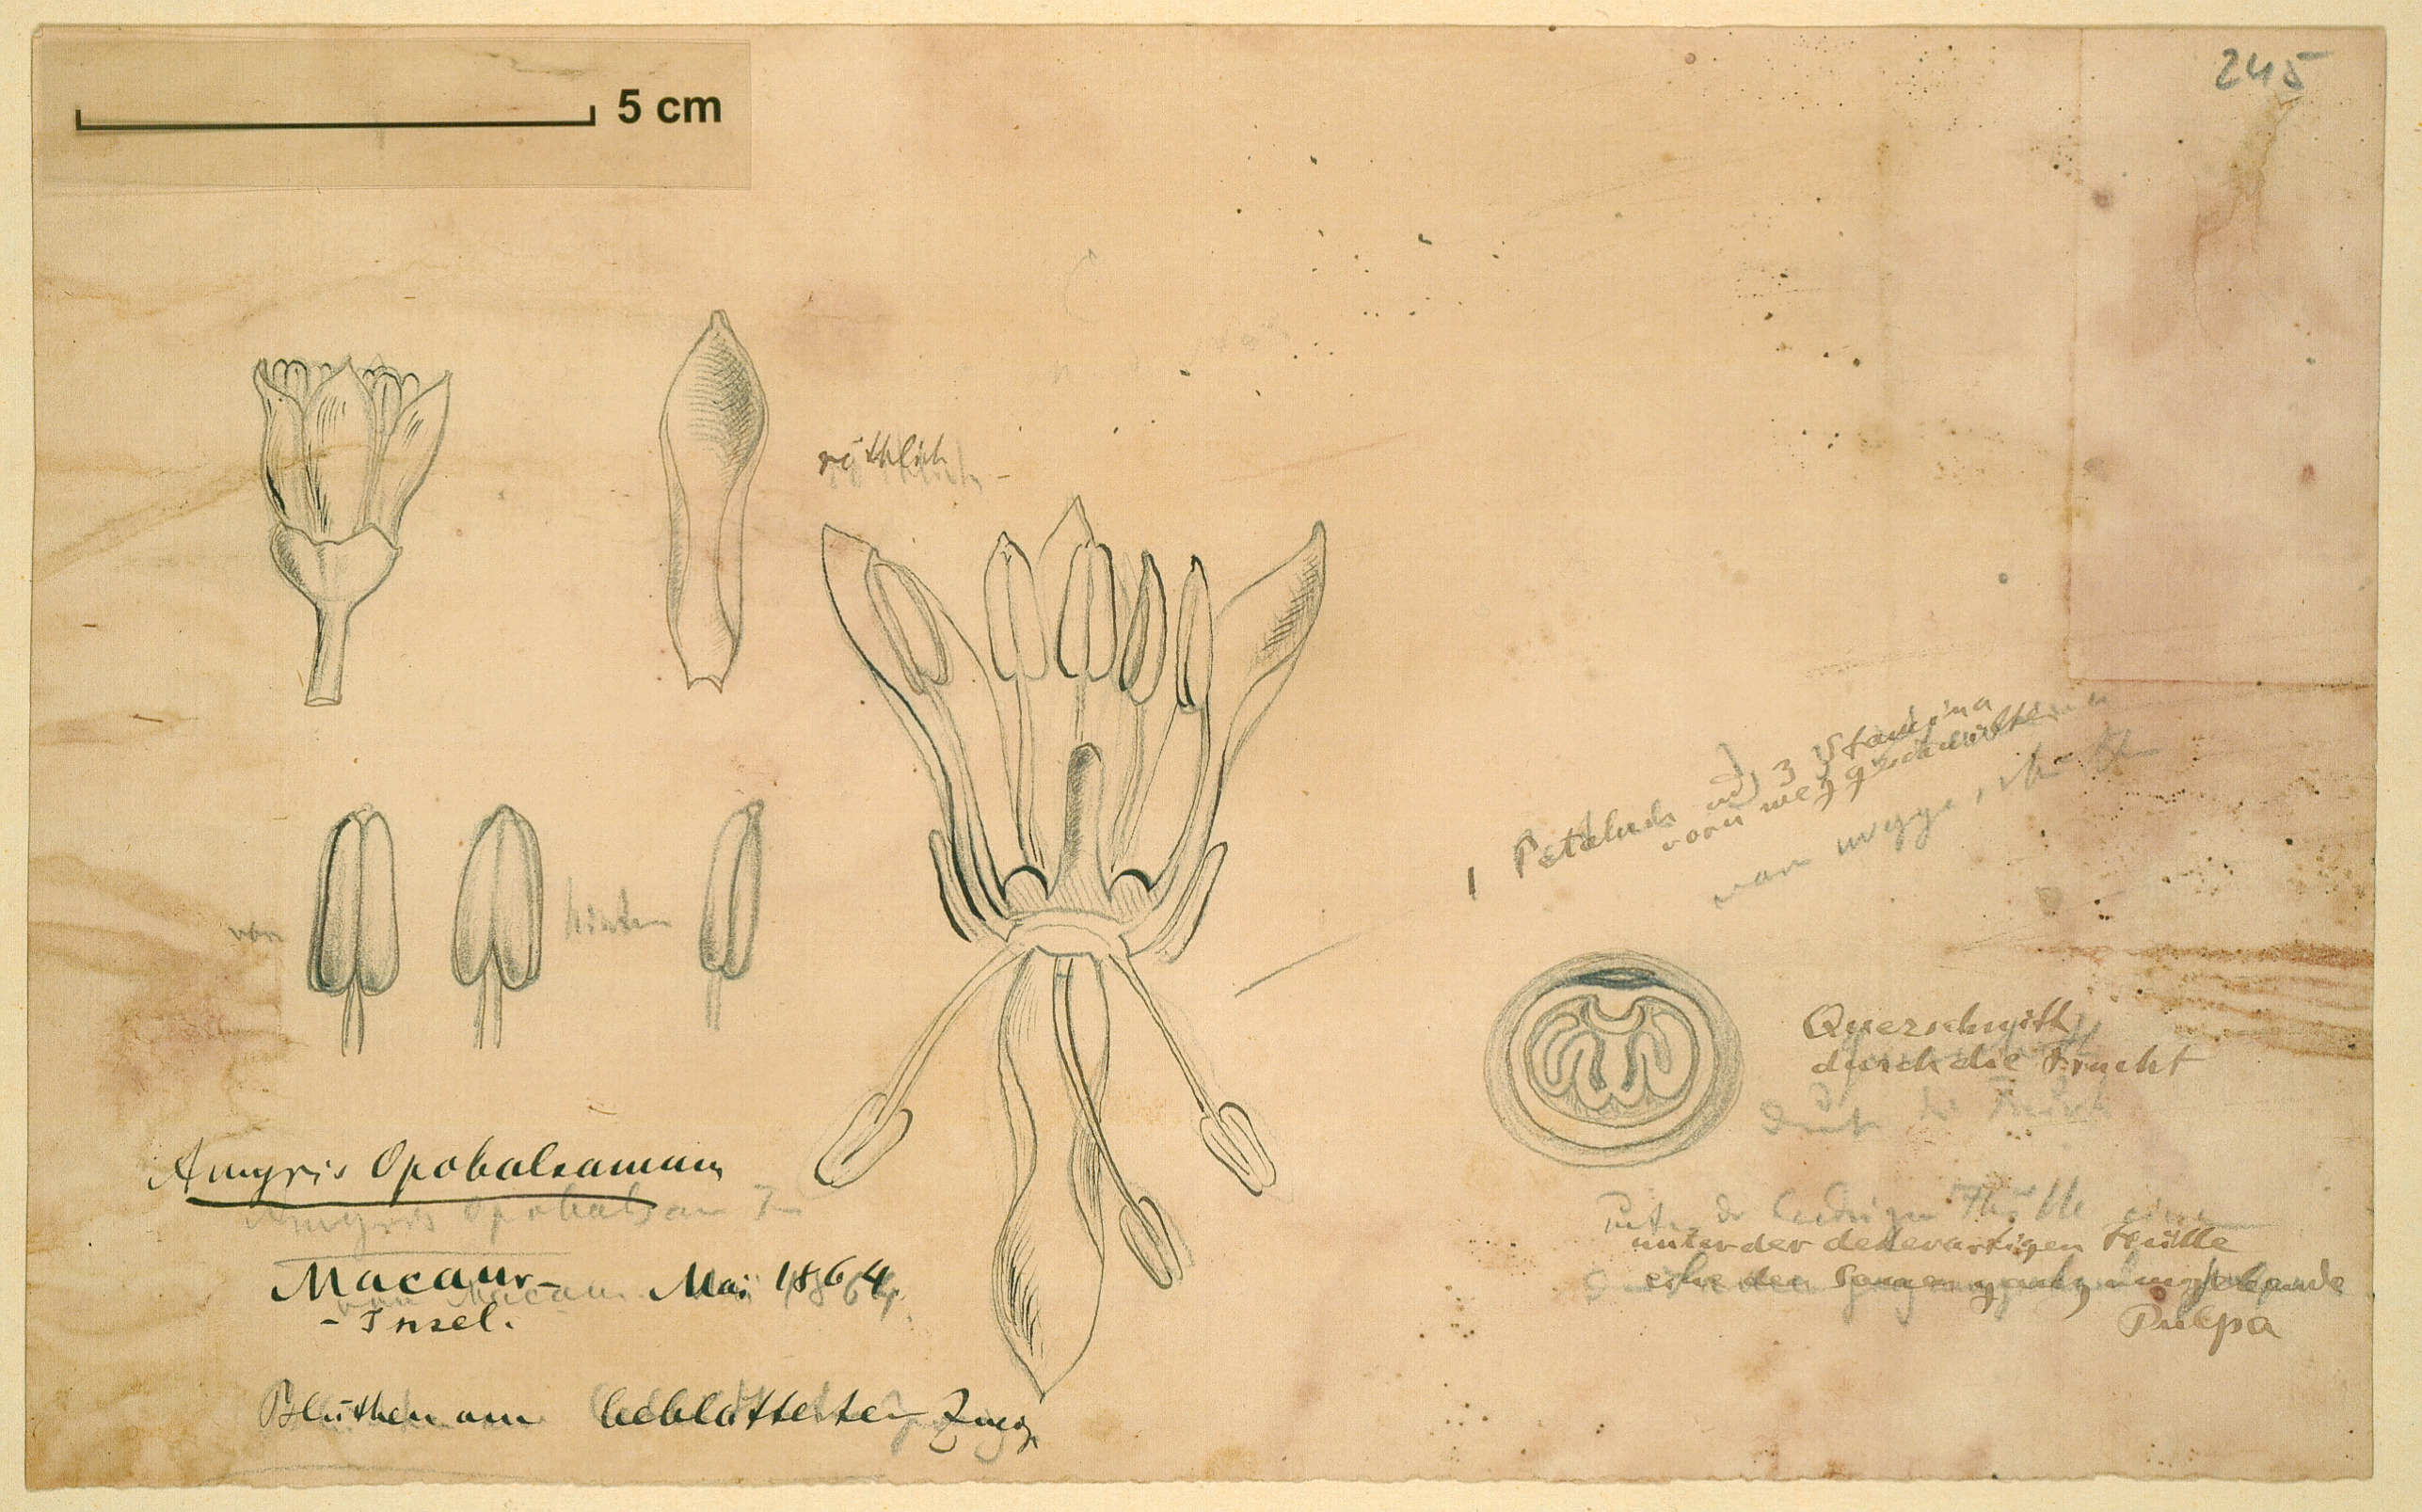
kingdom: Plantae
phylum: Tracheophyta
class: Magnoliopsida
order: Sapindales
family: Burseraceae
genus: Commiphora
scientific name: Commiphora gileadensis
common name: Balm-of-gilead
